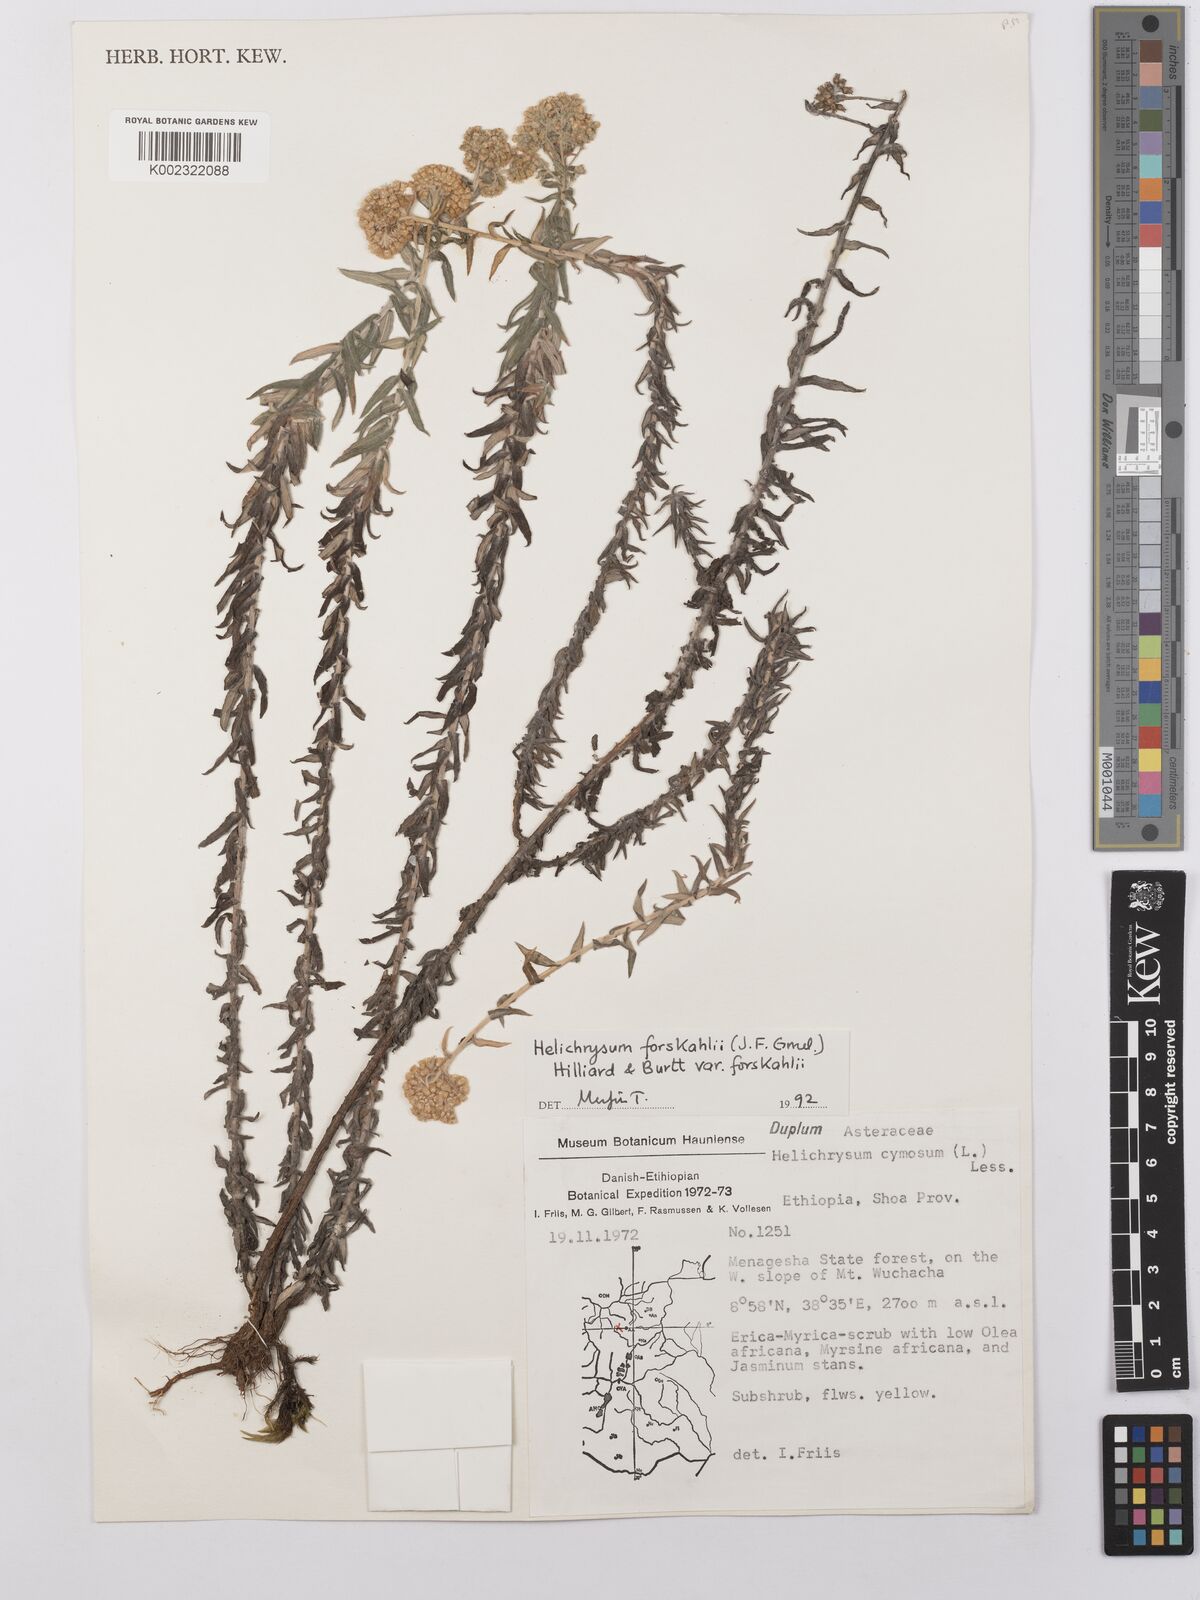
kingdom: Plantae
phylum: Tracheophyta
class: Magnoliopsida
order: Asterales
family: Asteraceae
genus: Helichrysum
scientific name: Helichrysum forskahlii
